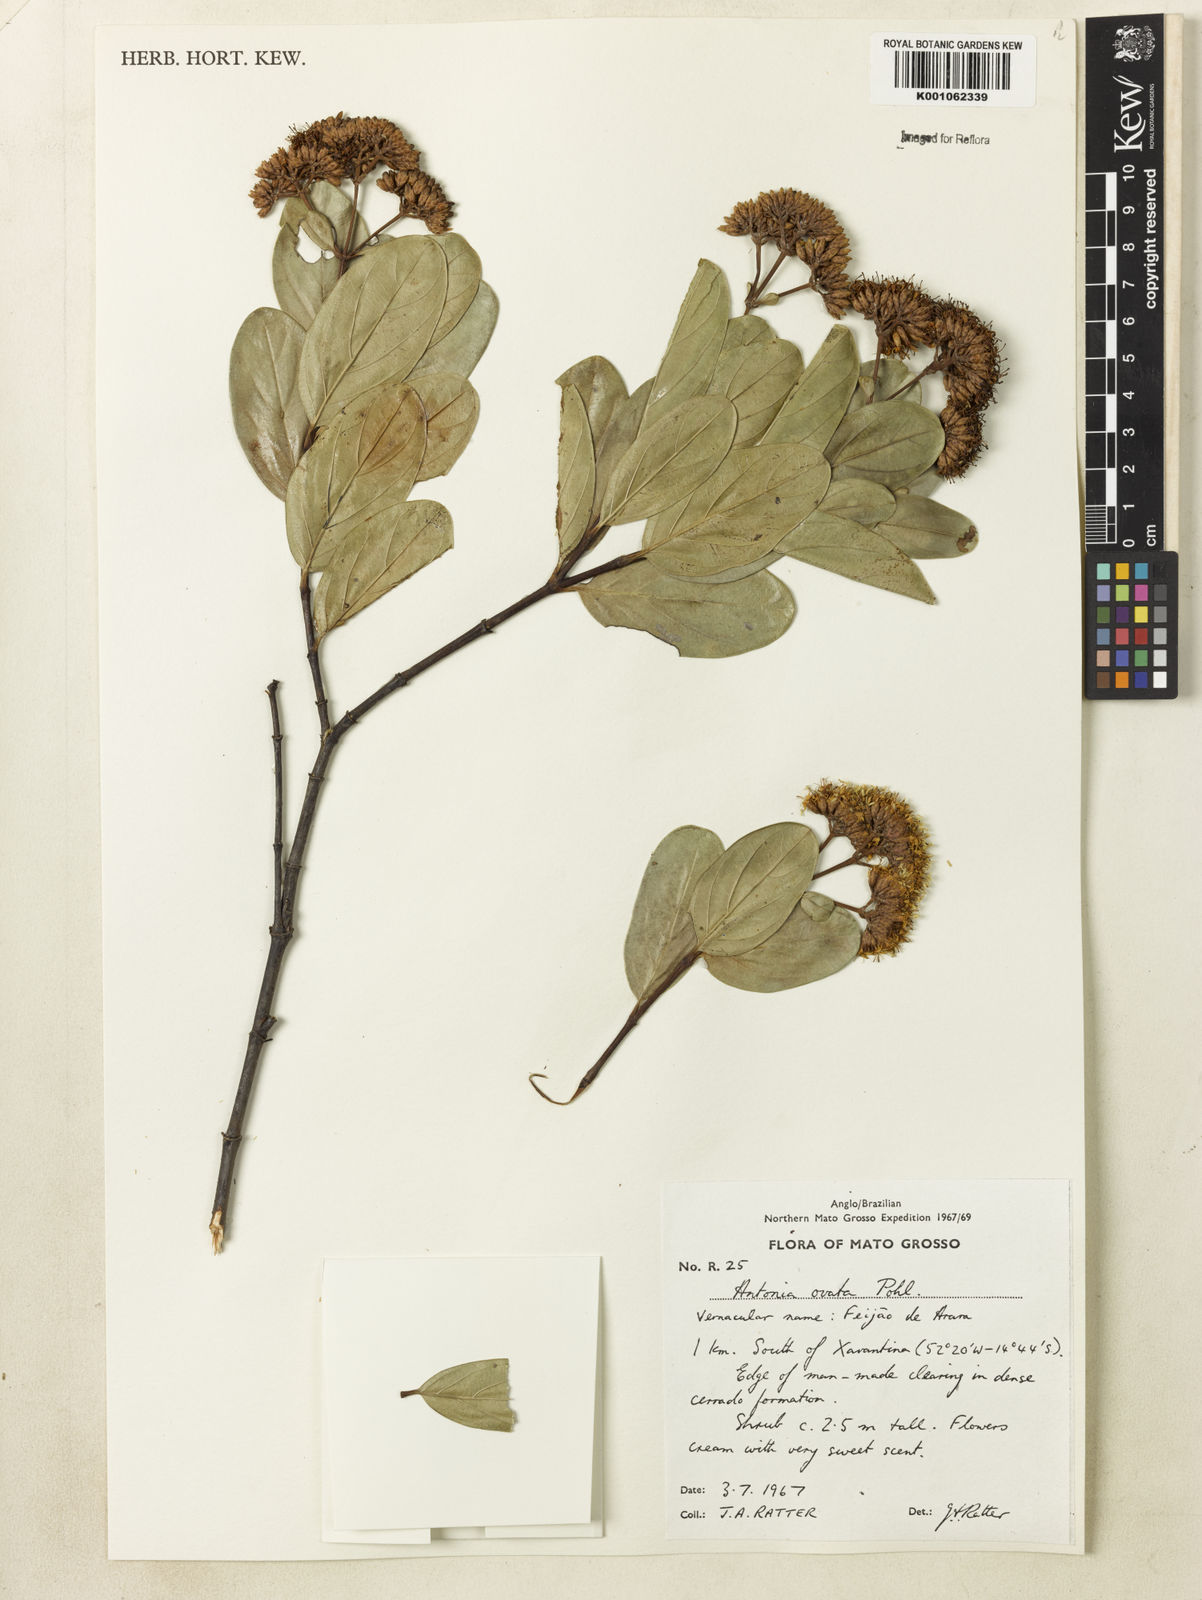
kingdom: Plantae
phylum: Tracheophyta
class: Magnoliopsida
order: Gentianales
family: Loganiaceae
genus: Antonia
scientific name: Antonia ovata
